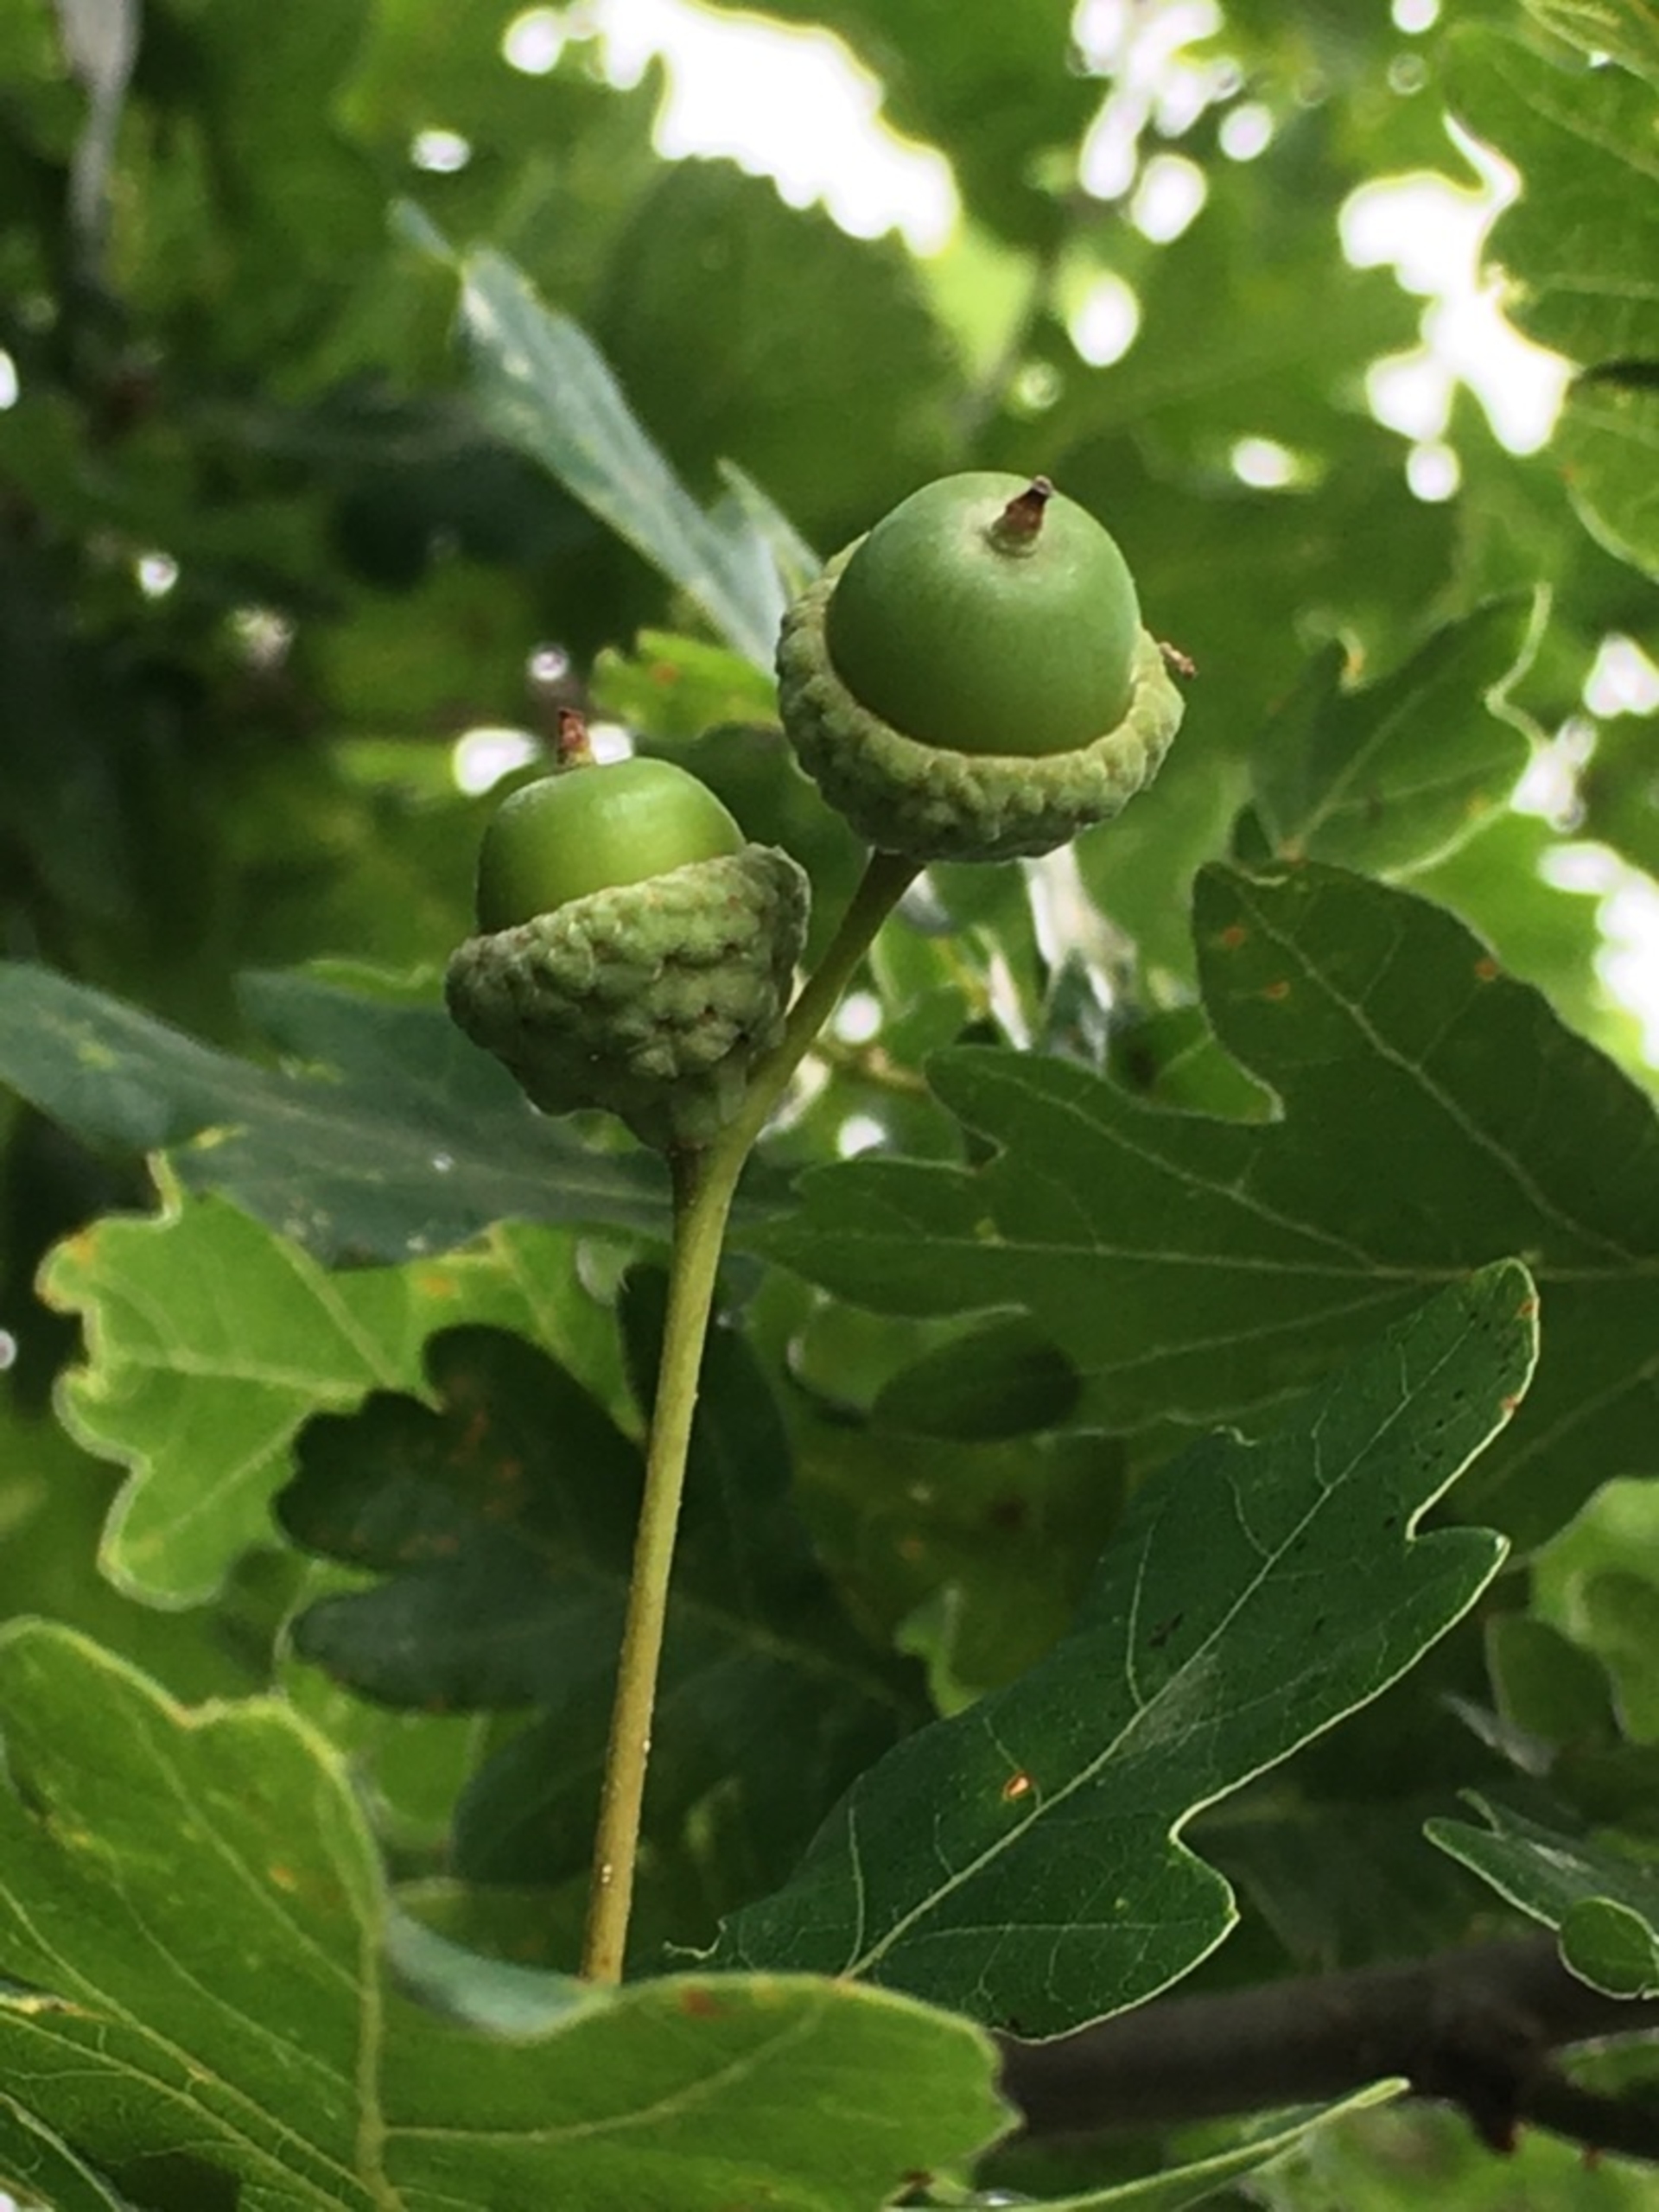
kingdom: Plantae
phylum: Tracheophyta
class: Magnoliopsida
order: Fagales
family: Fagaceae
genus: Quercus
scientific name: Quercus robur
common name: Stilk-eg/almindelig eg
